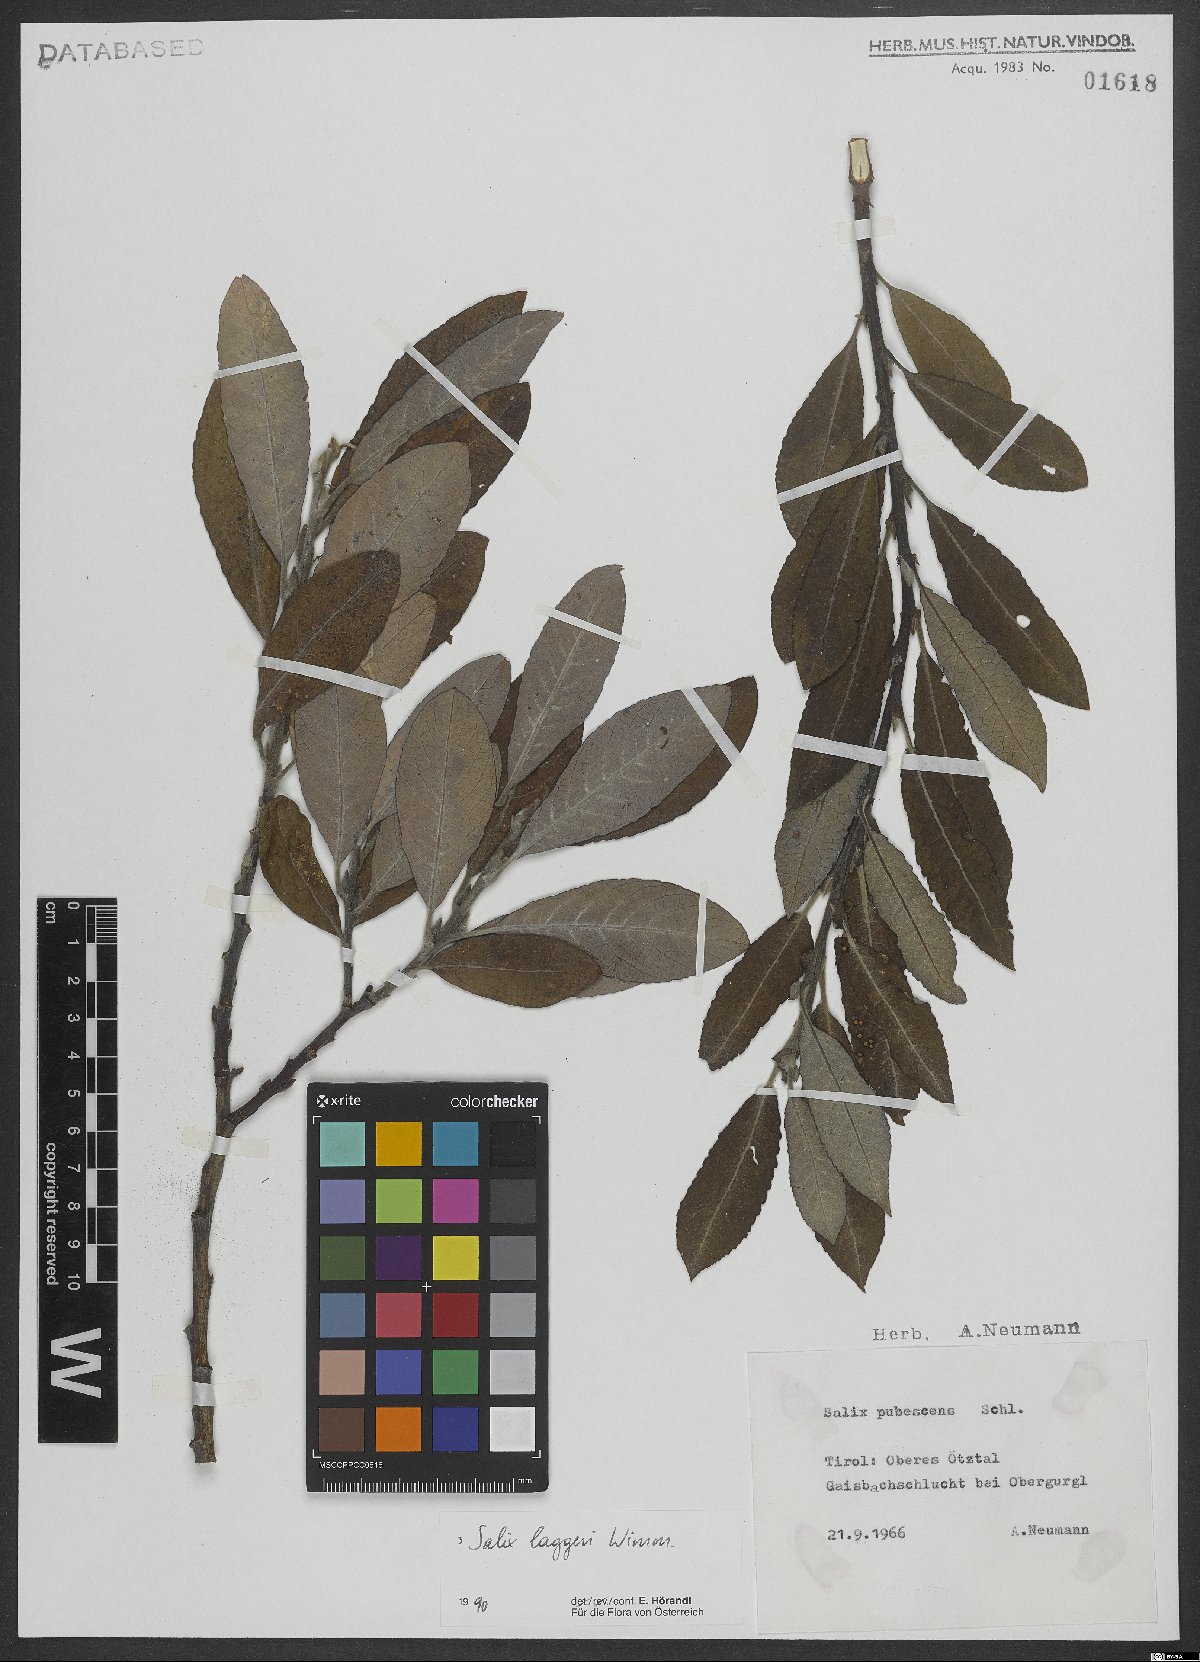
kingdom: Plantae
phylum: Tracheophyta
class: Magnoliopsida
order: Malpighiales
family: Salicaceae
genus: Salix
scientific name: Salix laggeri
